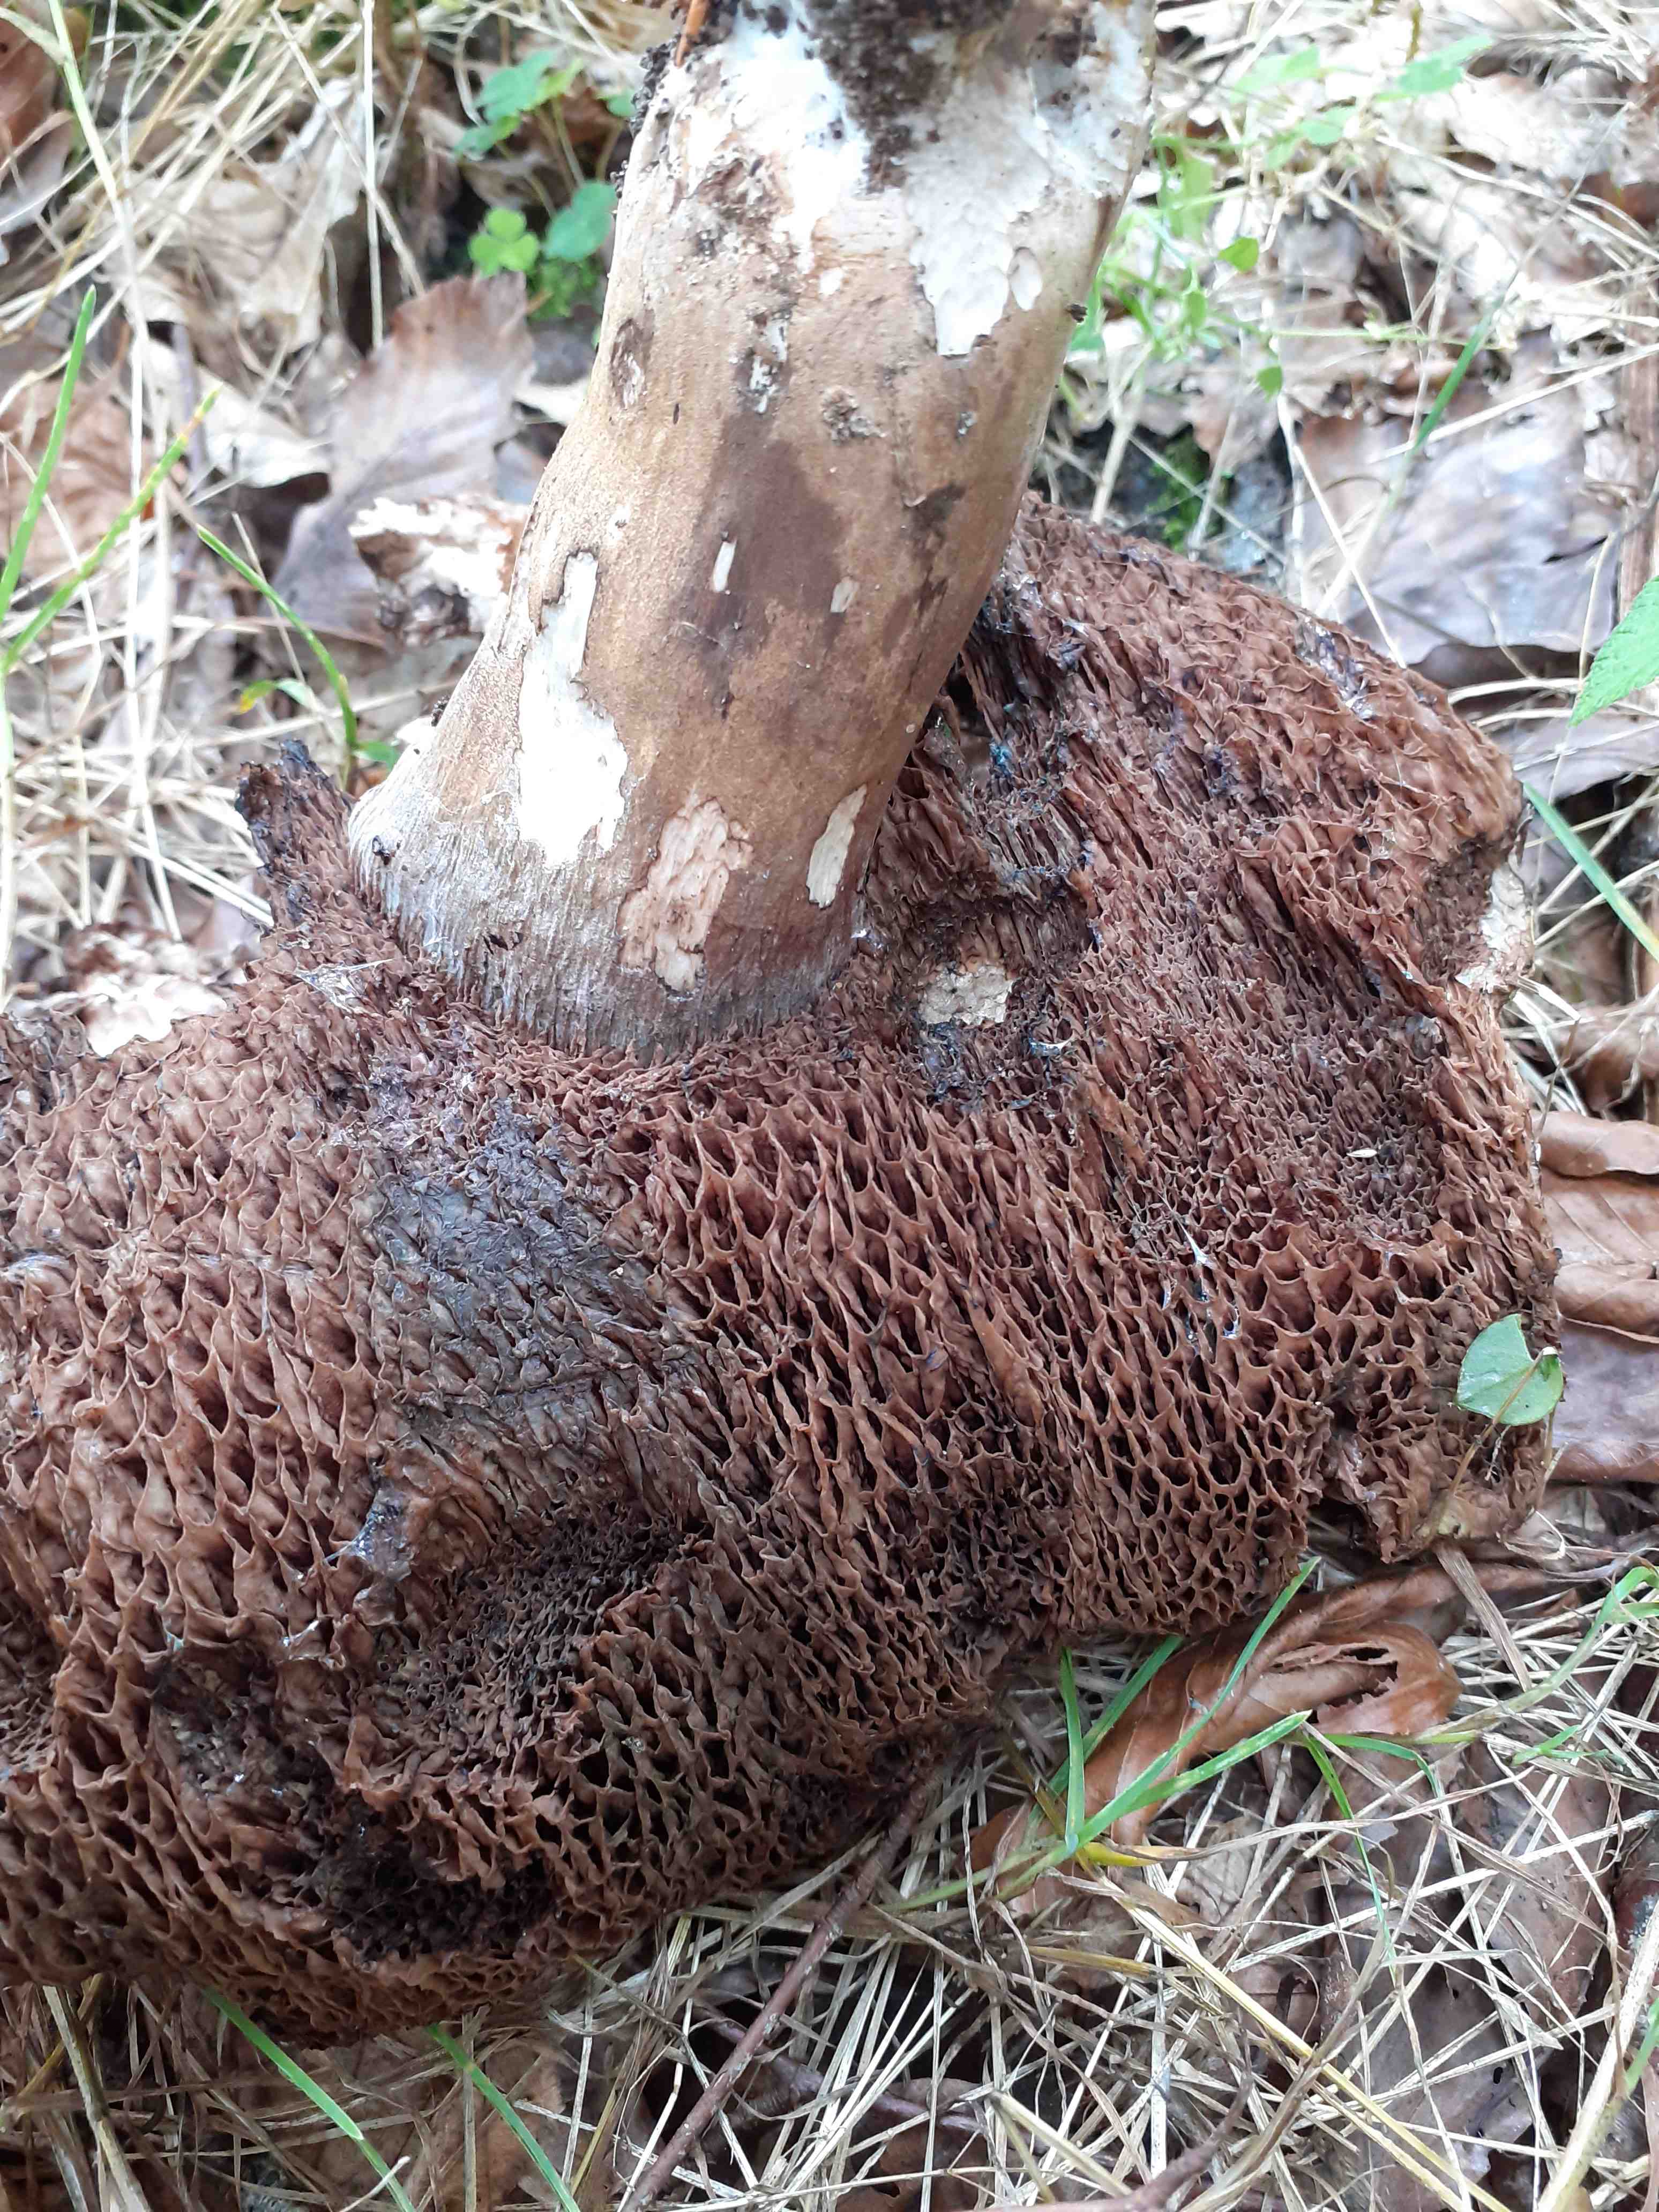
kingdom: Fungi
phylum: Basidiomycota
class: Agaricomycetes
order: Boletales
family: Boletaceae
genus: Porphyrellus
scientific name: Porphyrellus porphyrosporus
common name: sodrørhat
